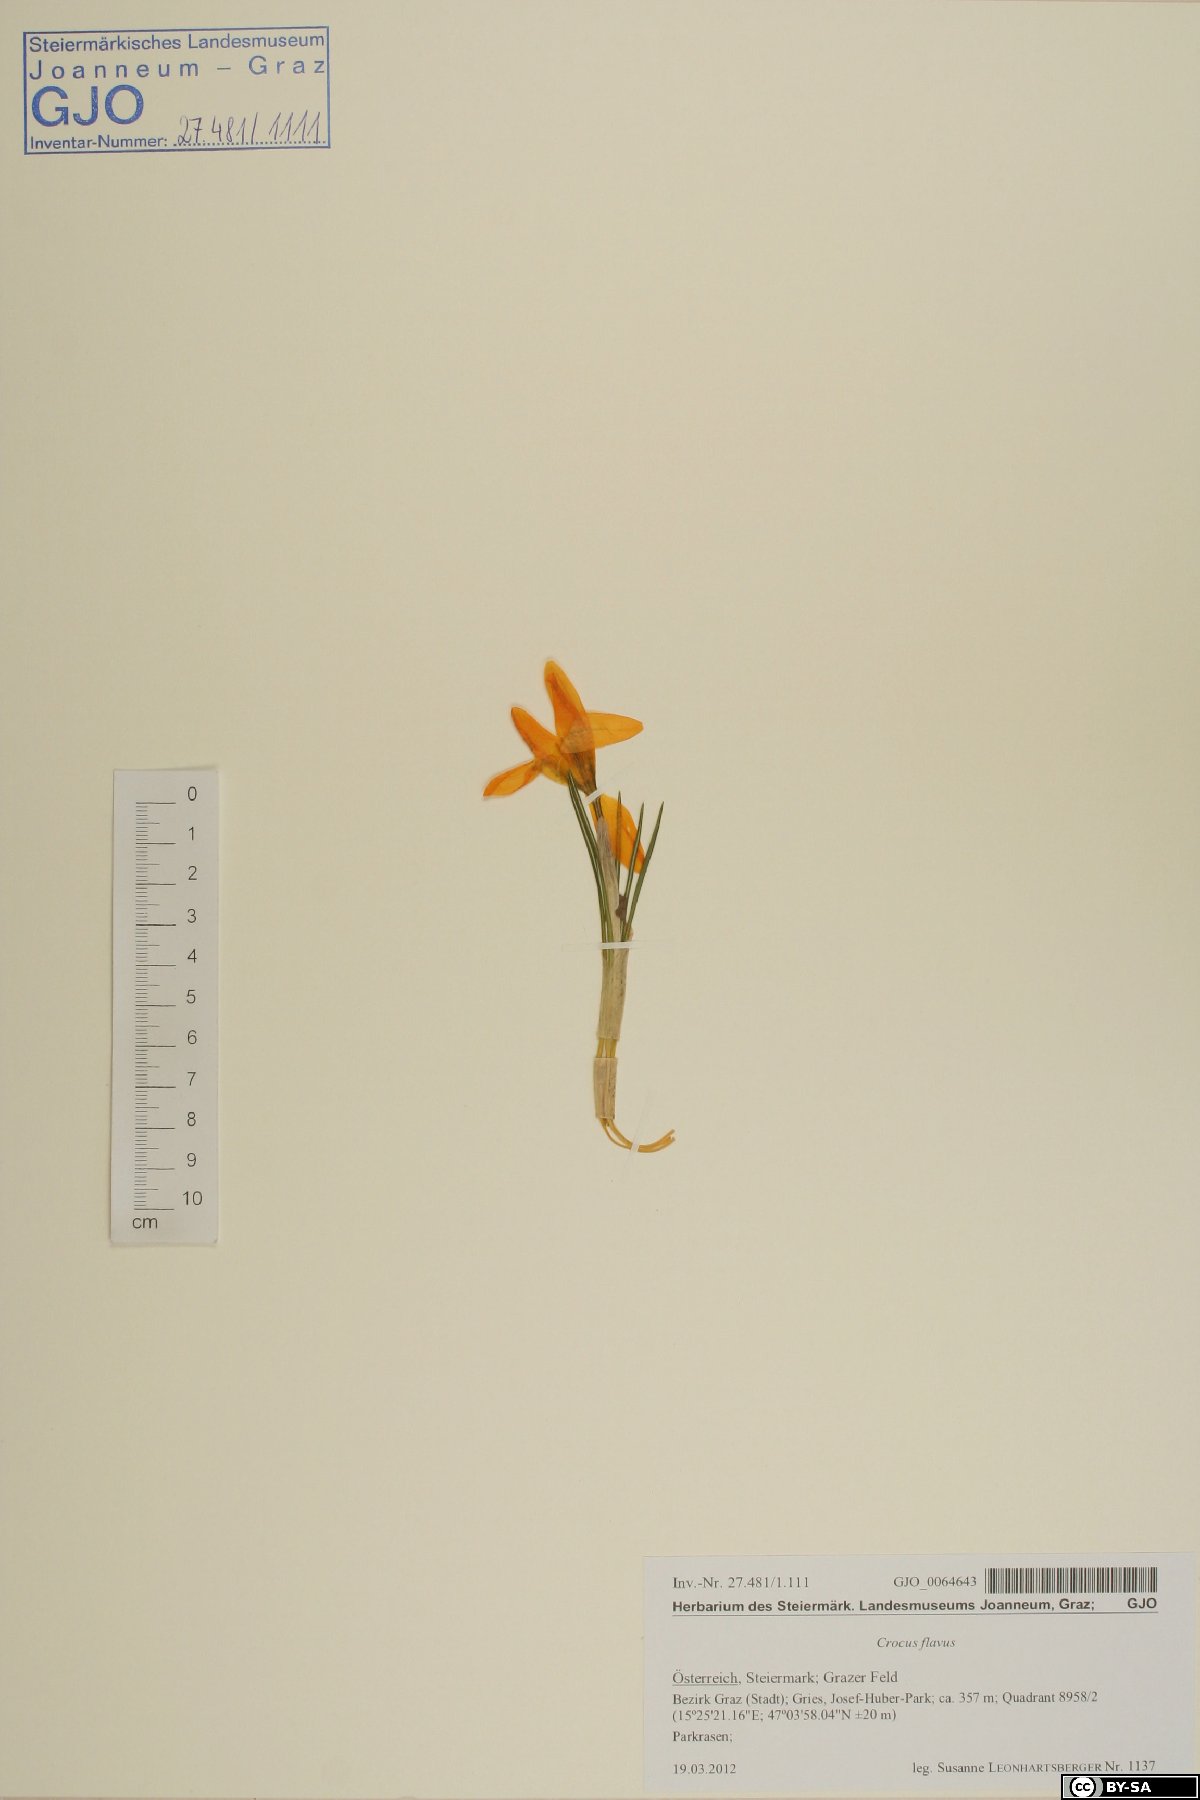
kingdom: Plantae
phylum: Tracheophyta
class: Liliopsida
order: Asparagales
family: Iridaceae
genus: Crocus
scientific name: Crocus flavus
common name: Yellow crocus
